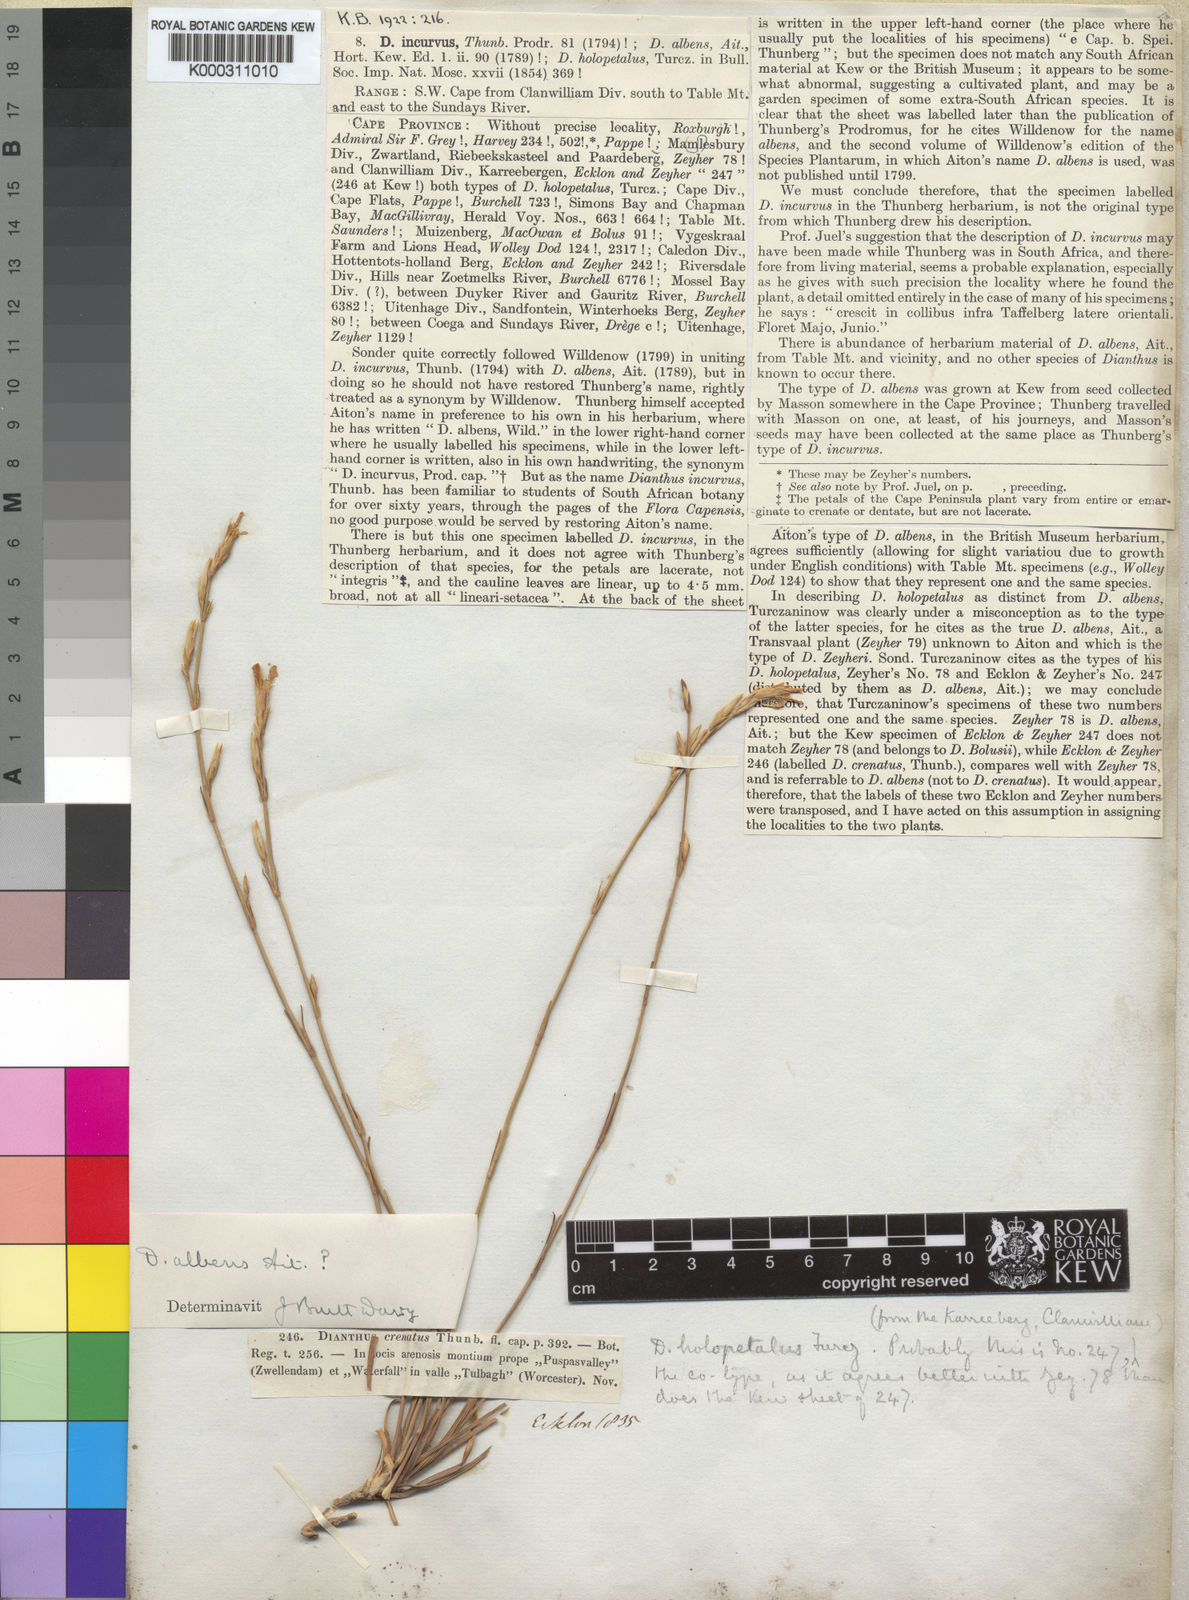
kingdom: Plantae
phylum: Tracheophyta
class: Magnoliopsida
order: Caryophyllales
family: Caryophyllaceae
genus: Dianthus
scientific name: Dianthus
